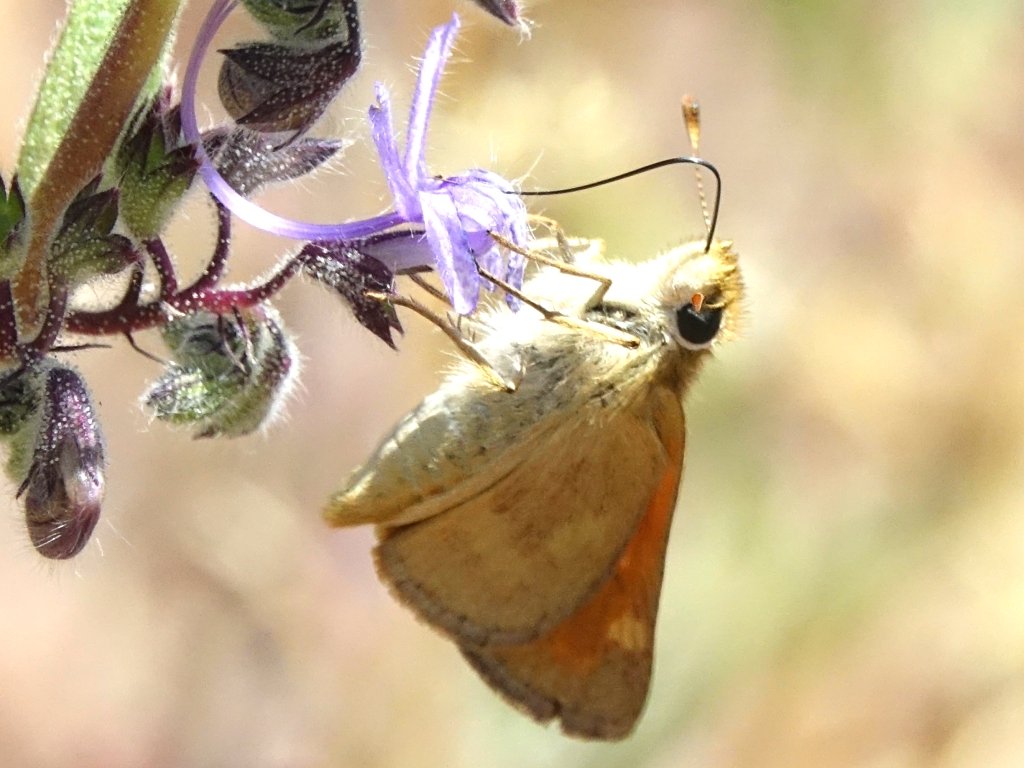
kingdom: Animalia
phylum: Arthropoda
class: Insecta
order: Lepidoptera
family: Hesperiidae
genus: Ochlodes
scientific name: Ochlodes sylvanoides
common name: Woodland Skipper
